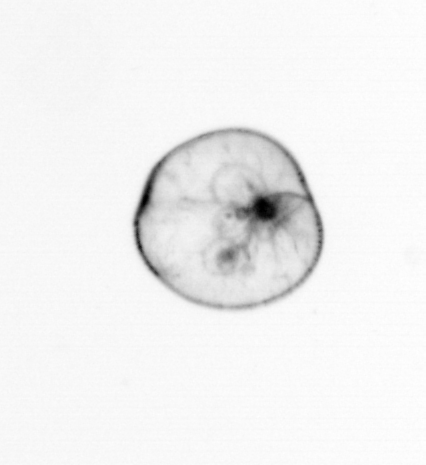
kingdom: Chromista
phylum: Myzozoa
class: Dinophyceae
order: Noctilucales
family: Noctilucaceae
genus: Noctiluca
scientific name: Noctiluca scintillans
